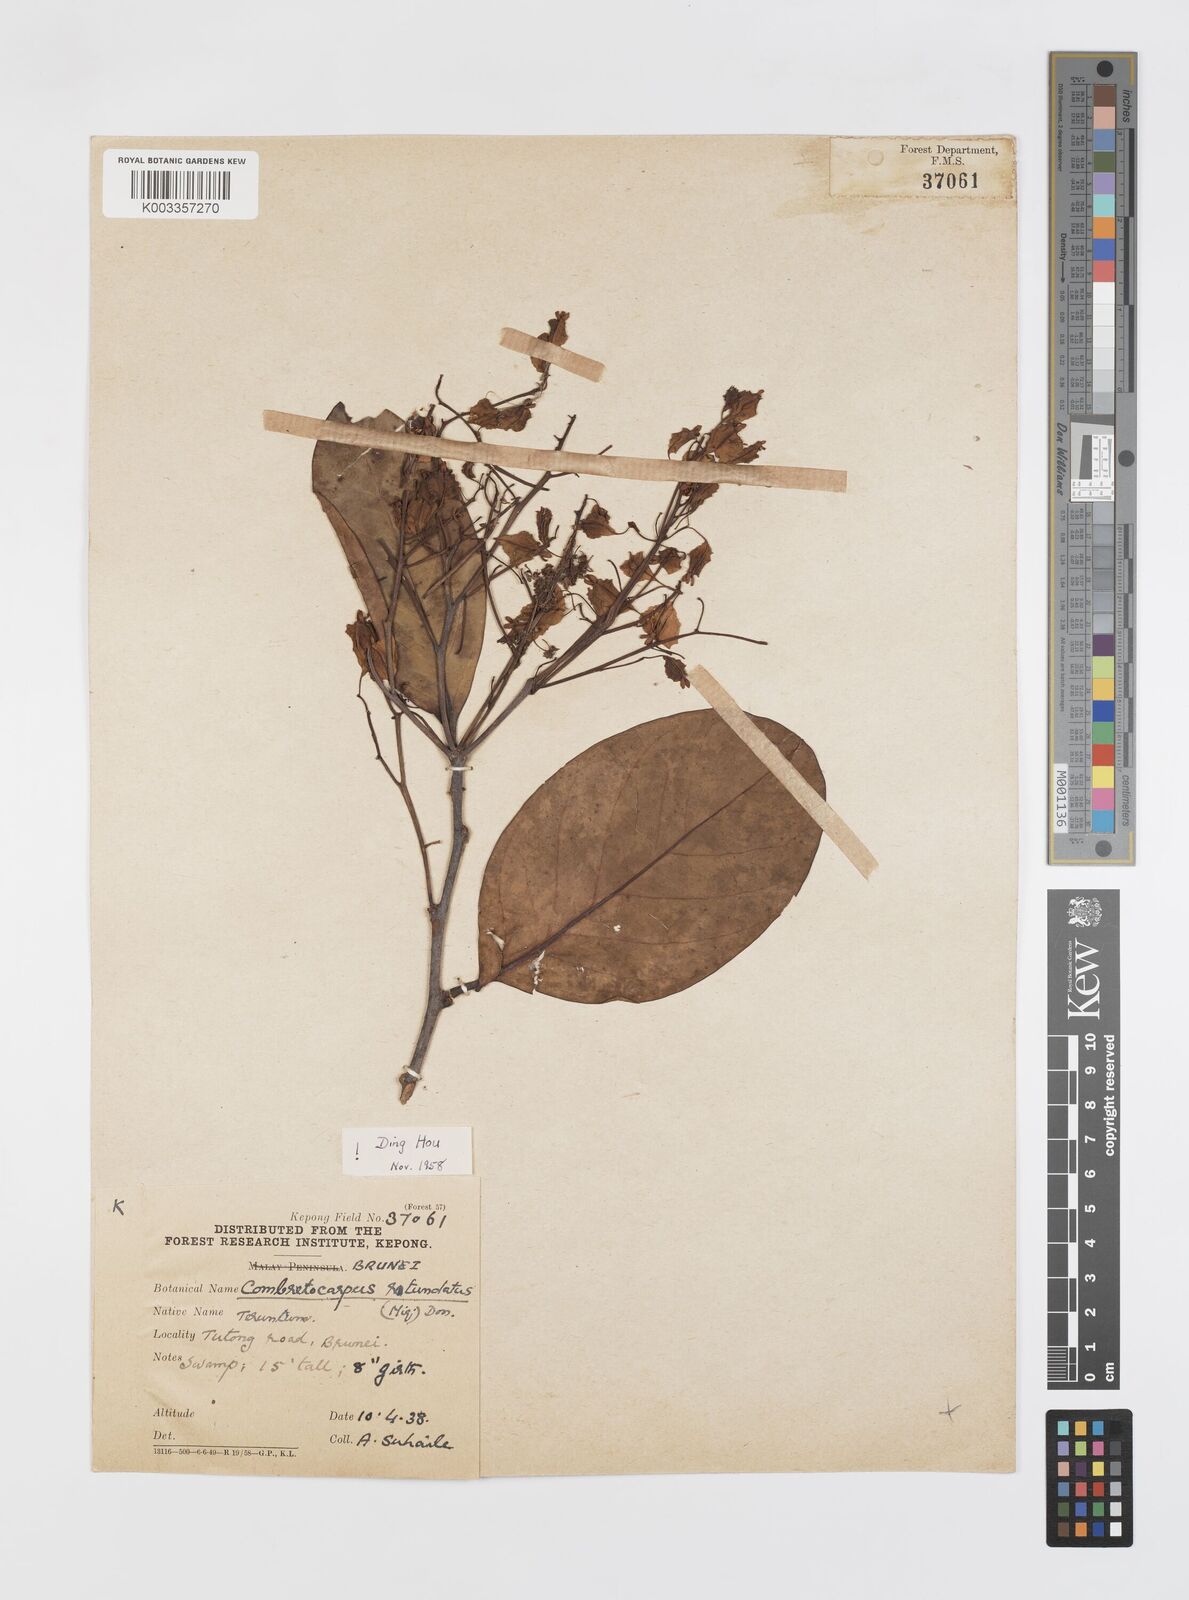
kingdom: Plantae
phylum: Tracheophyta
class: Magnoliopsida
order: Cucurbitales
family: Anisophylleaceae
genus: Combretocarpus
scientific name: Combretocarpus rotundatus
